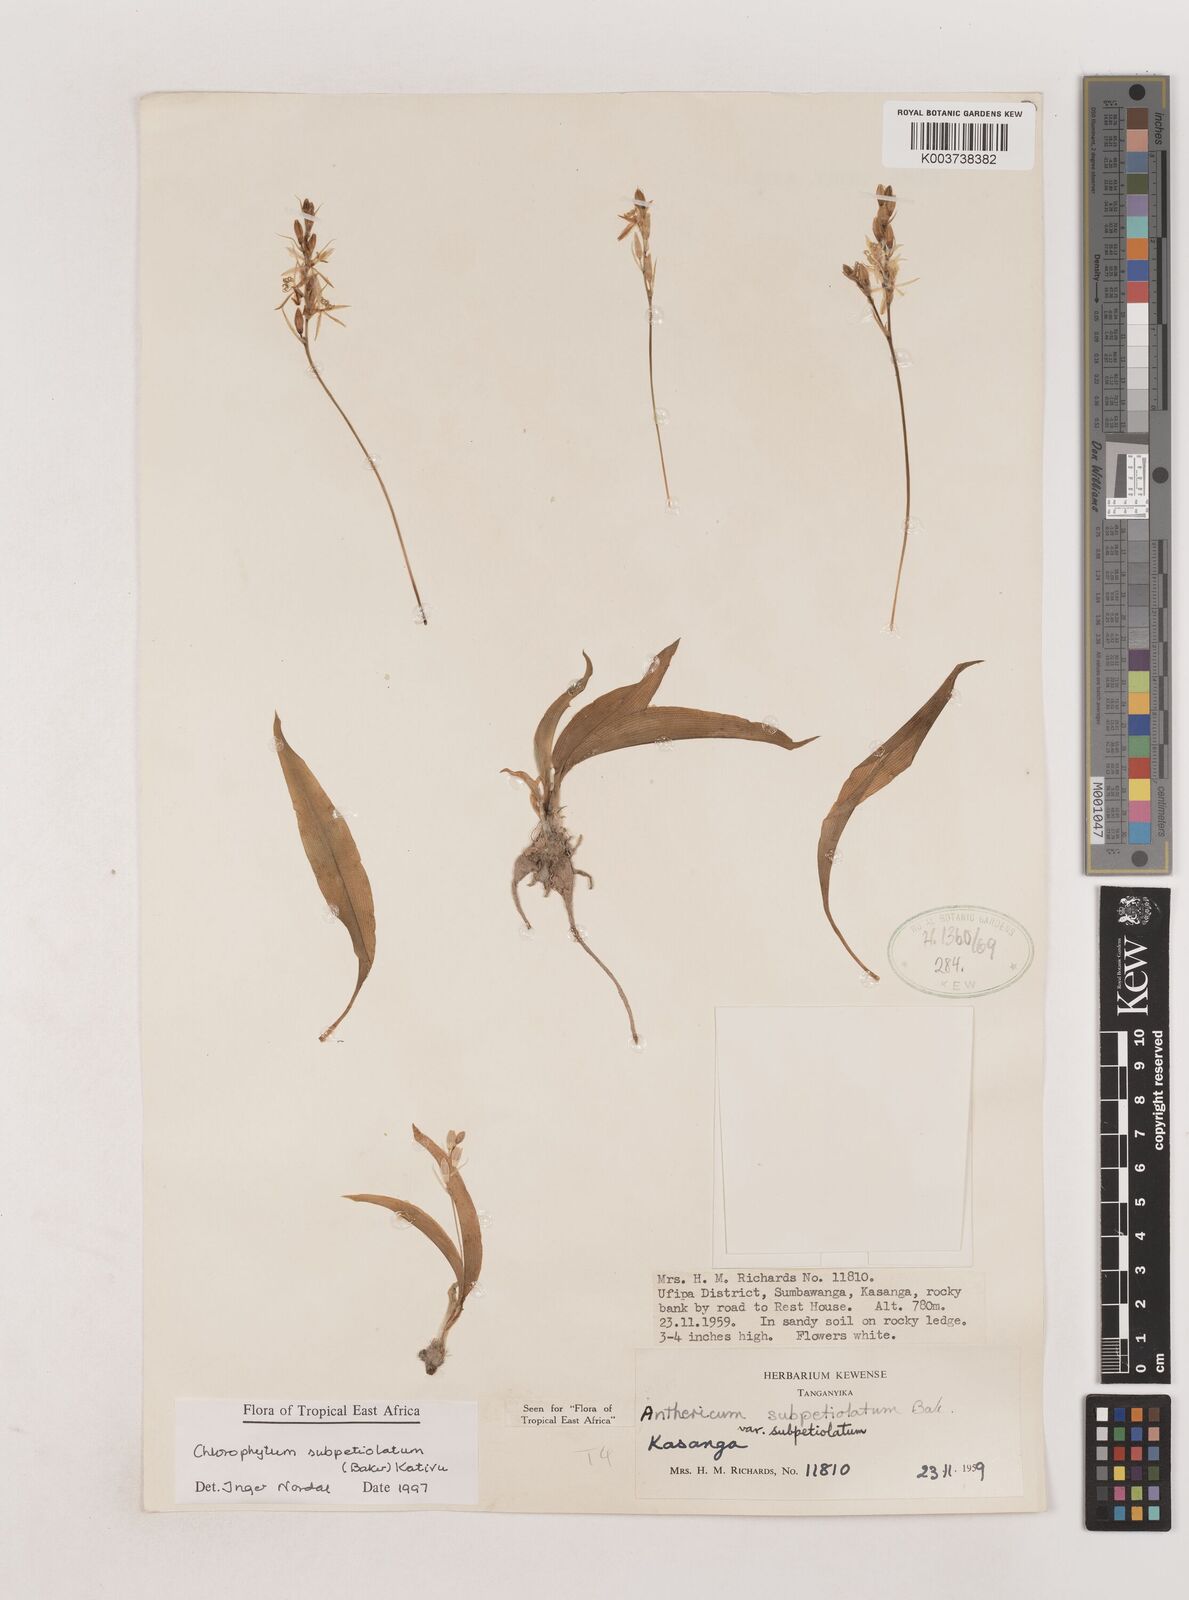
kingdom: Plantae
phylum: Tracheophyta
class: Liliopsida
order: Asparagales
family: Asparagaceae
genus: Chlorophytum
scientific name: Chlorophytum subpetiolatum
